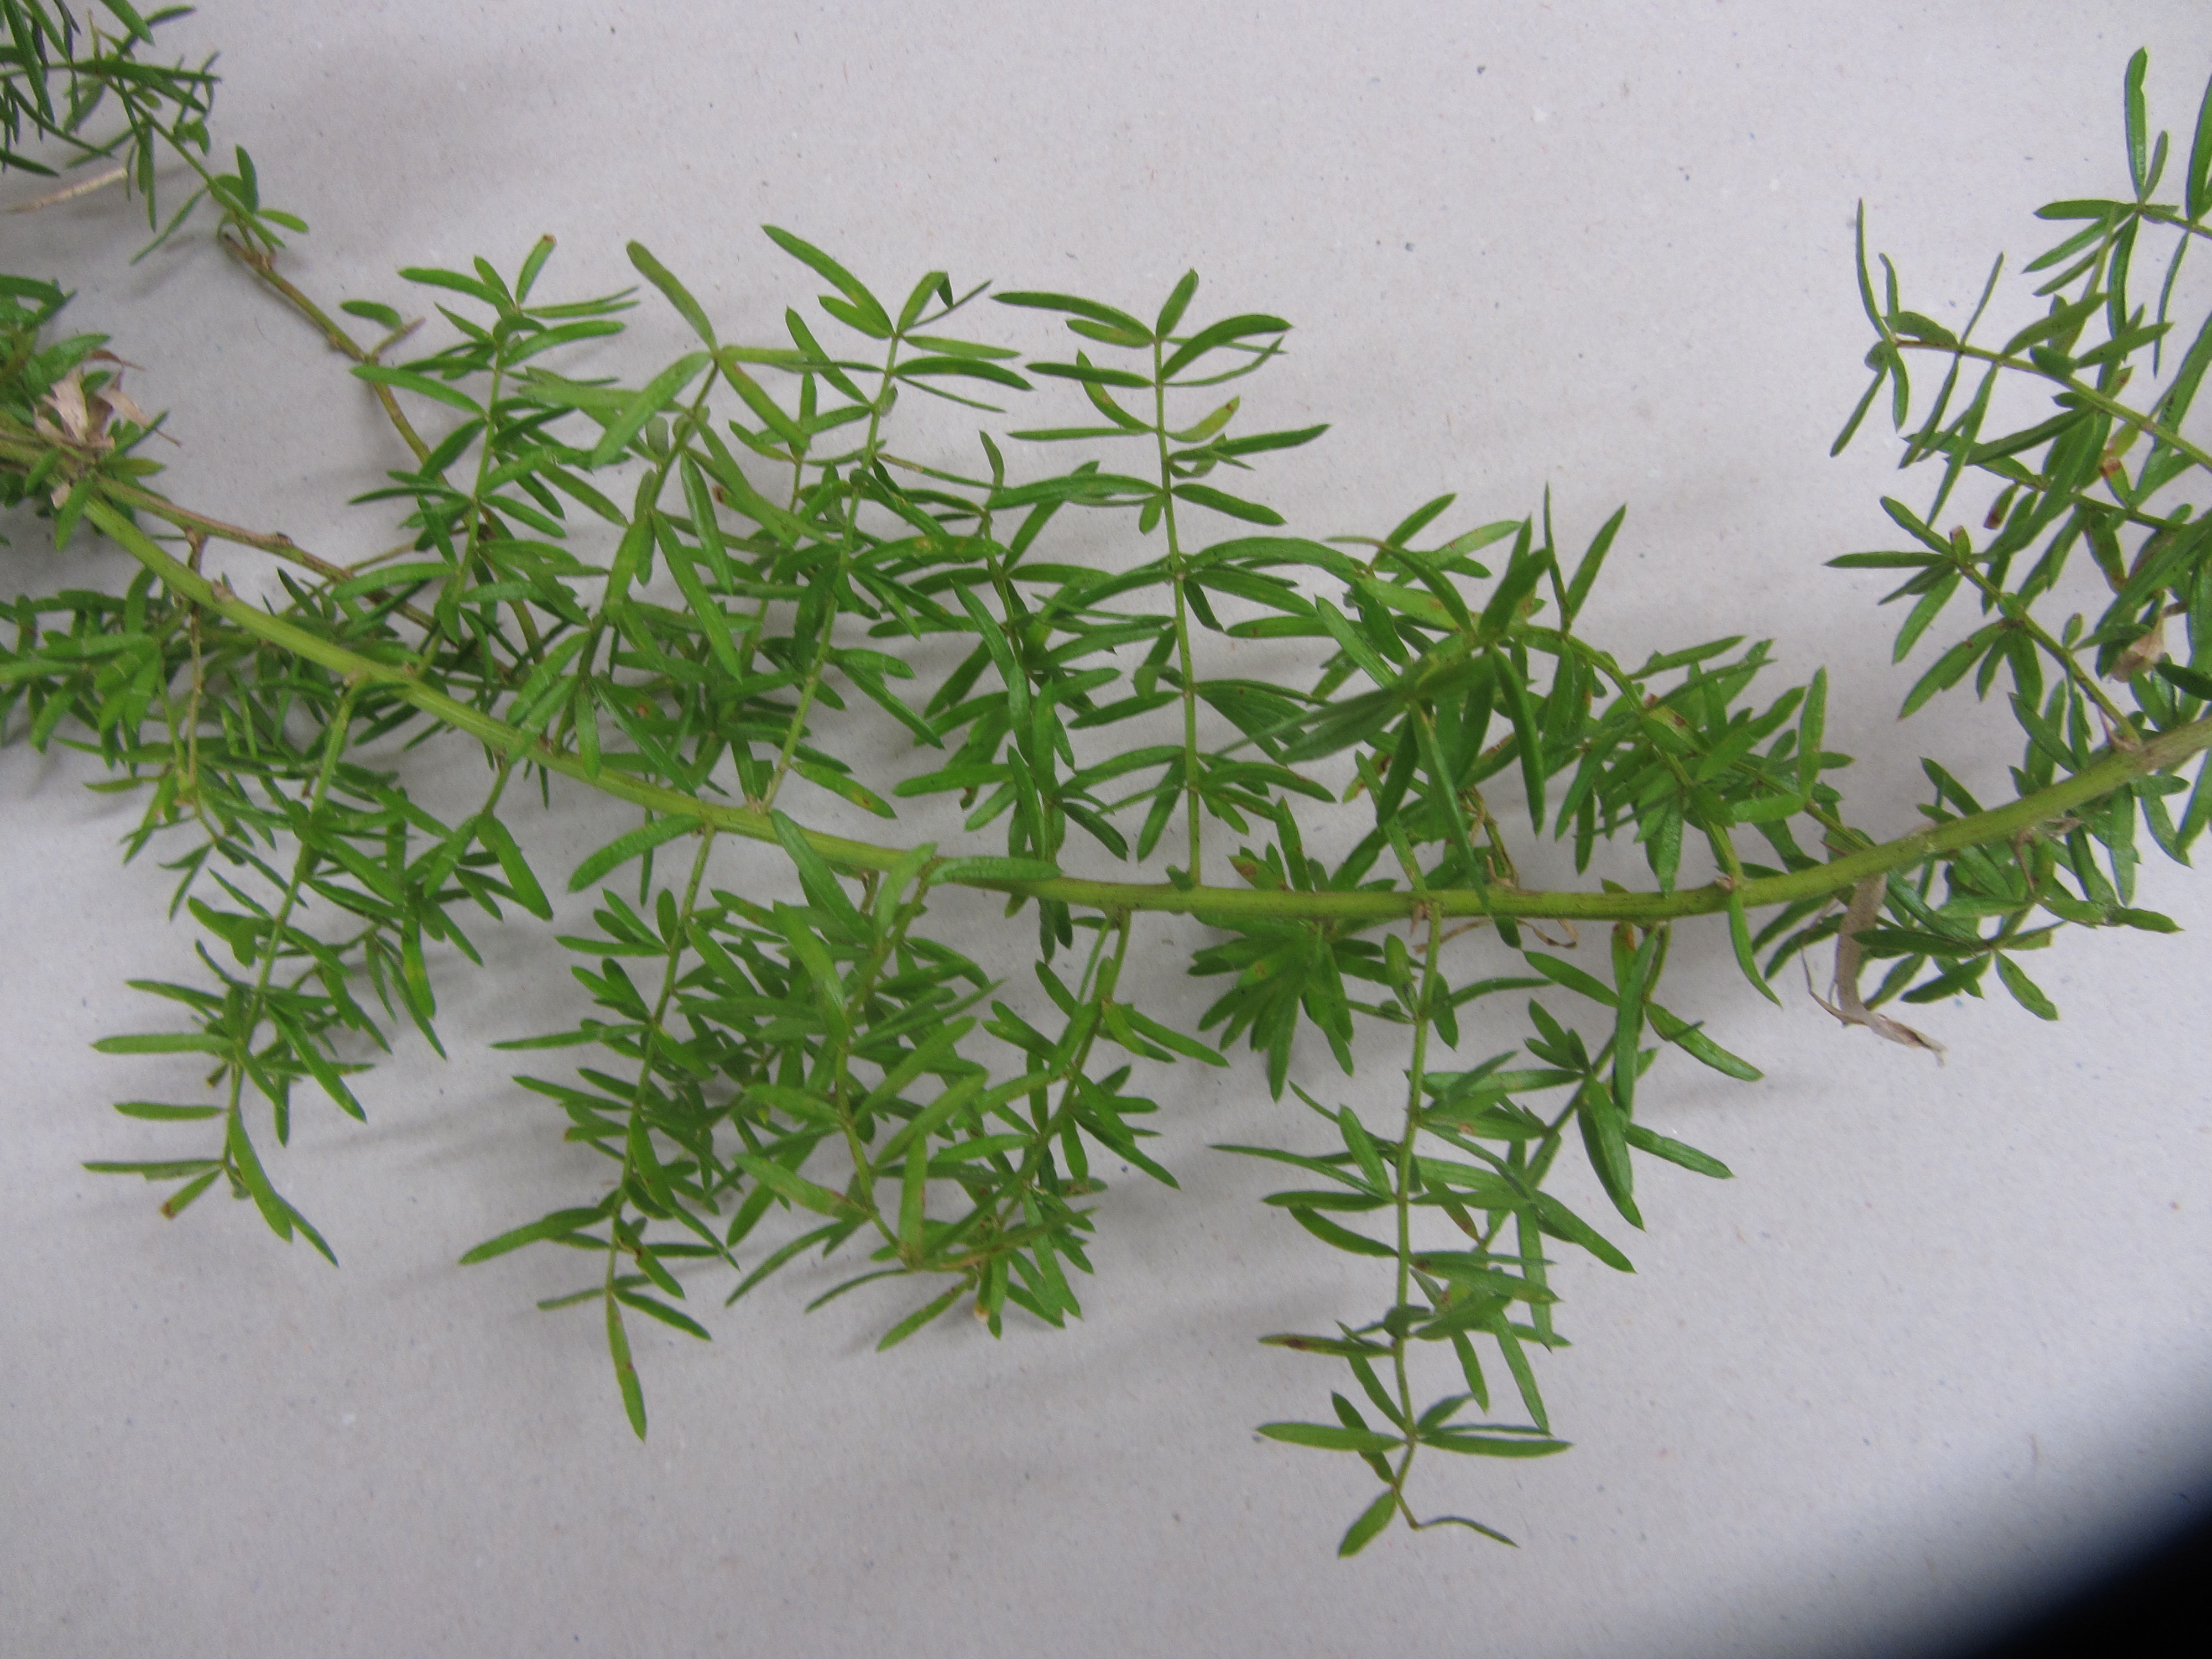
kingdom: Plantae
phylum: Tracheophyta
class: Liliopsida
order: Asparagales
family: Asparagaceae
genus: Asparagus
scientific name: Asparagus aethiopicus
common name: Sprenger's asparagus fern
